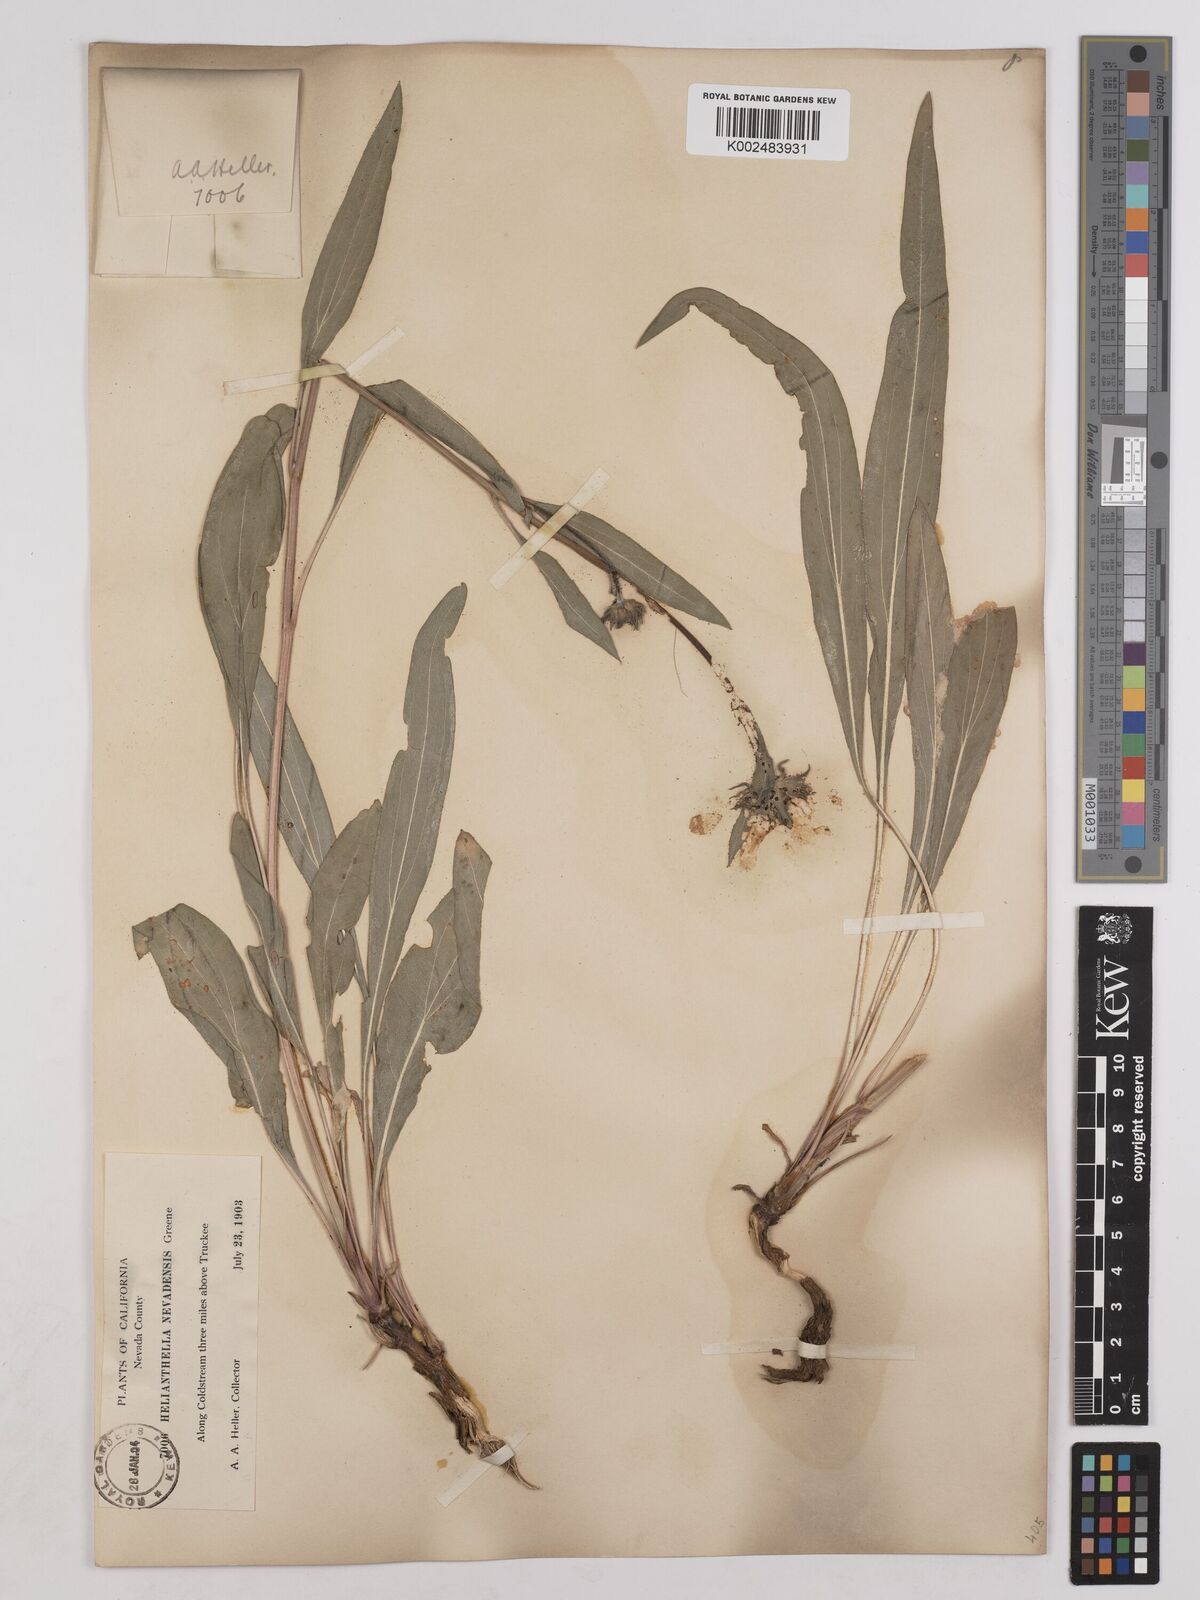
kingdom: Plantae
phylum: Tracheophyta
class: Magnoliopsida
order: Asterales
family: Asteraceae
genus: Helianthella
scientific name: Helianthella californica
